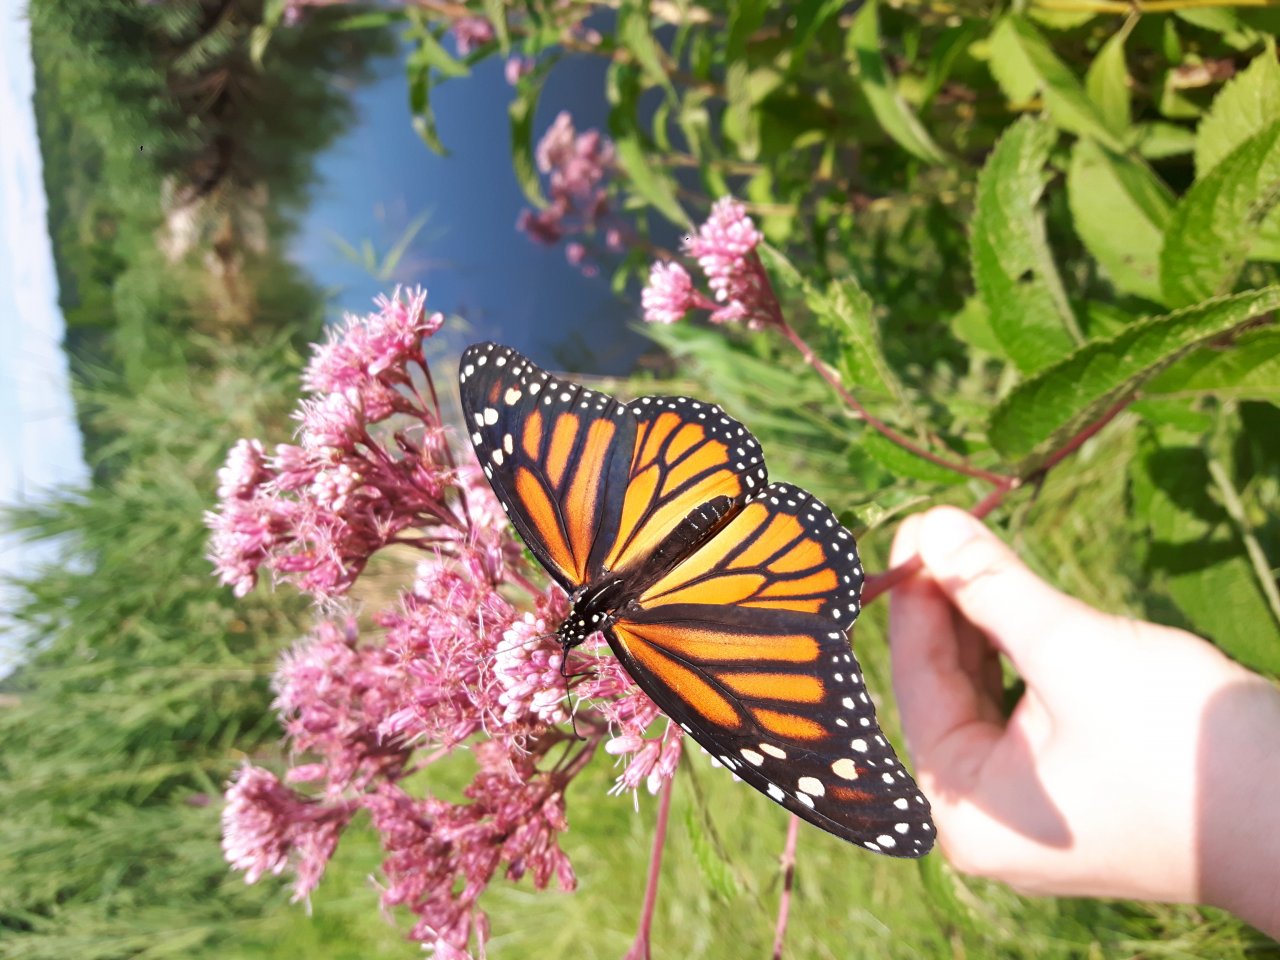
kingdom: Animalia
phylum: Arthropoda
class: Insecta
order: Lepidoptera
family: Nymphalidae
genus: Danaus
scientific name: Danaus plexippus
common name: Monarch
